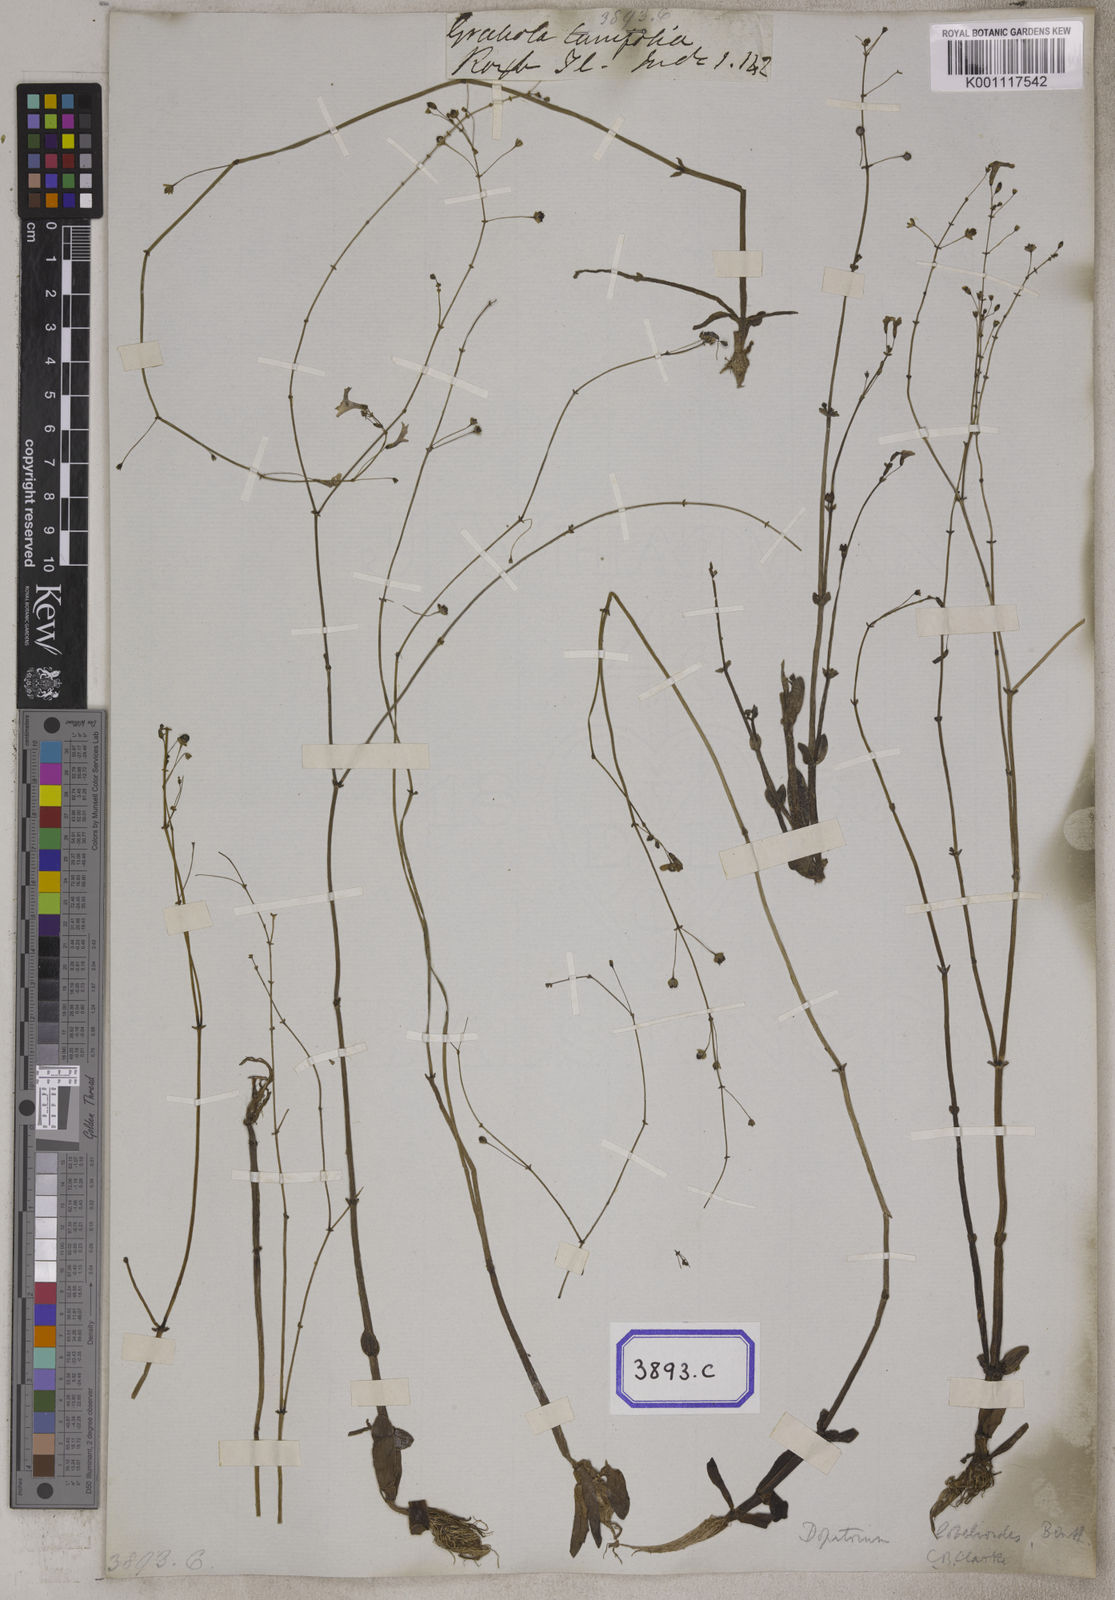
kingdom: Plantae
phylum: Tracheophyta
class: Magnoliopsida
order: Lamiales
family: Plantaginaceae
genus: Dopatrium
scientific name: Dopatrium lobelioides
